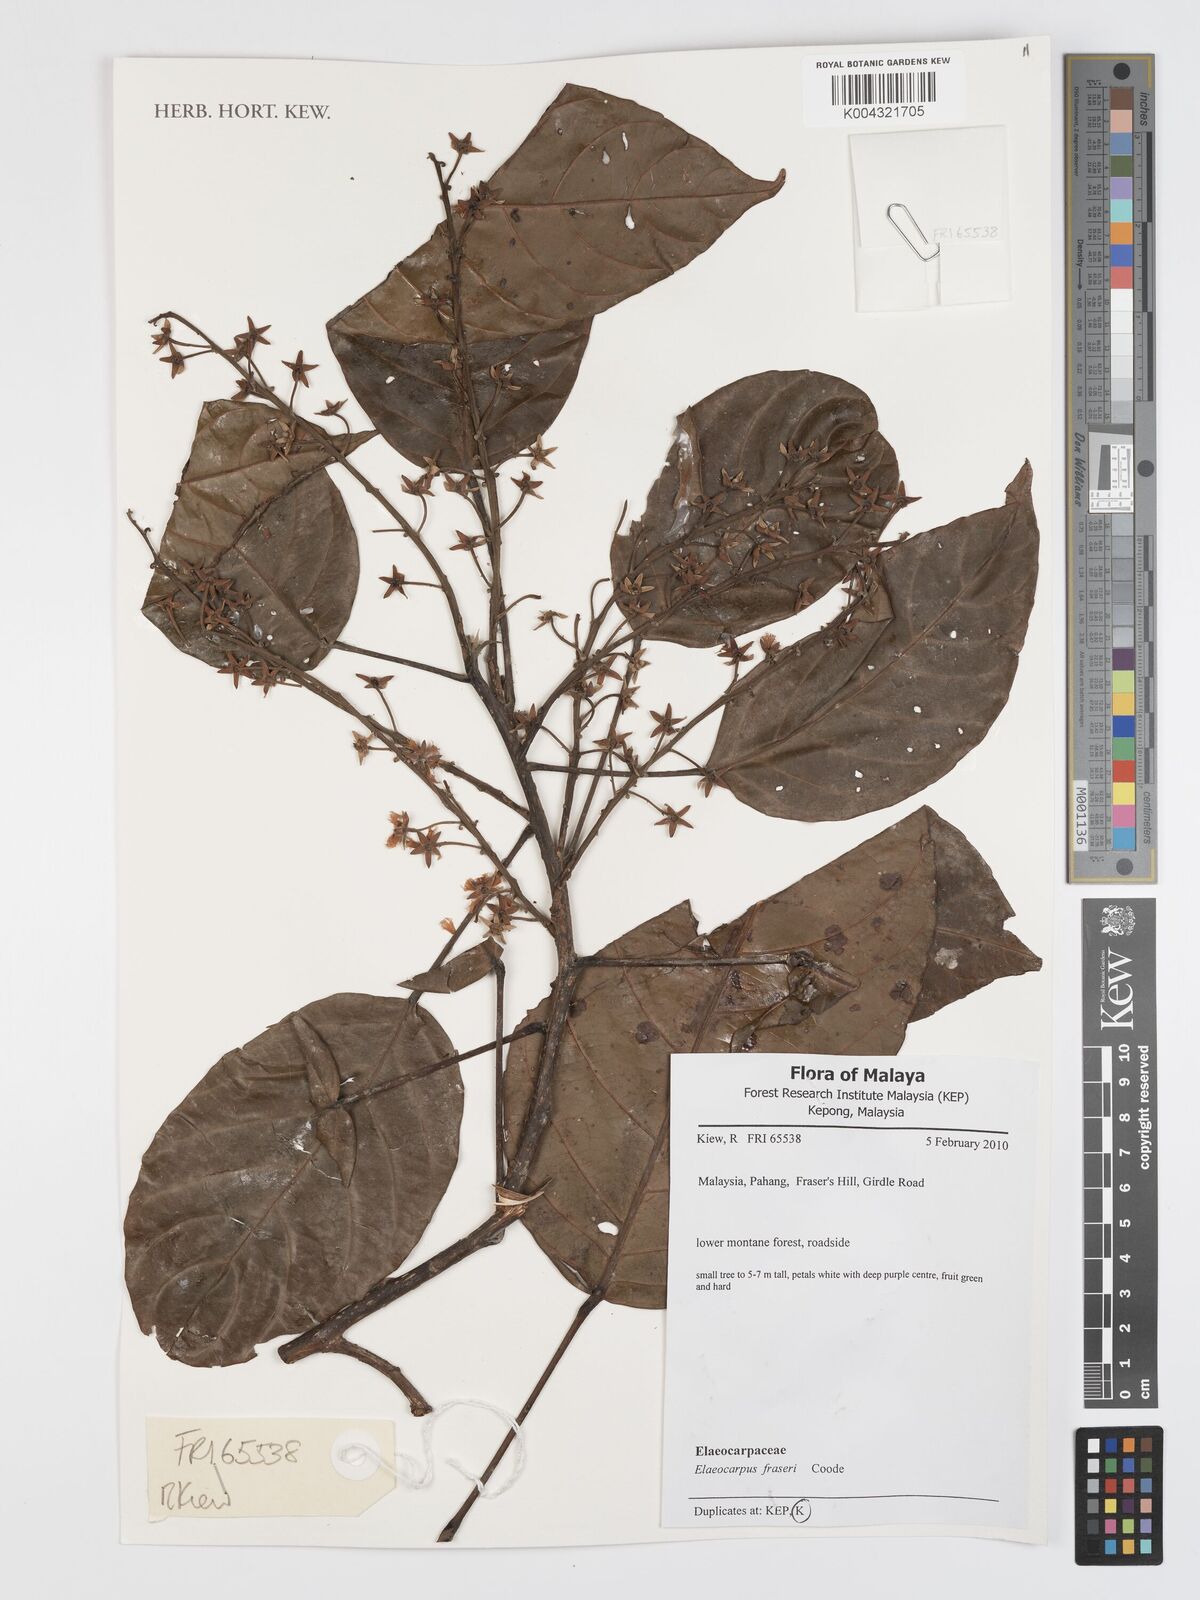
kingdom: Plantae
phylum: Tracheophyta
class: Magnoliopsida
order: Oxalidales
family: Elaeocarpaceae
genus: Elaeocarpus
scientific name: Elaeocarpus robustus
